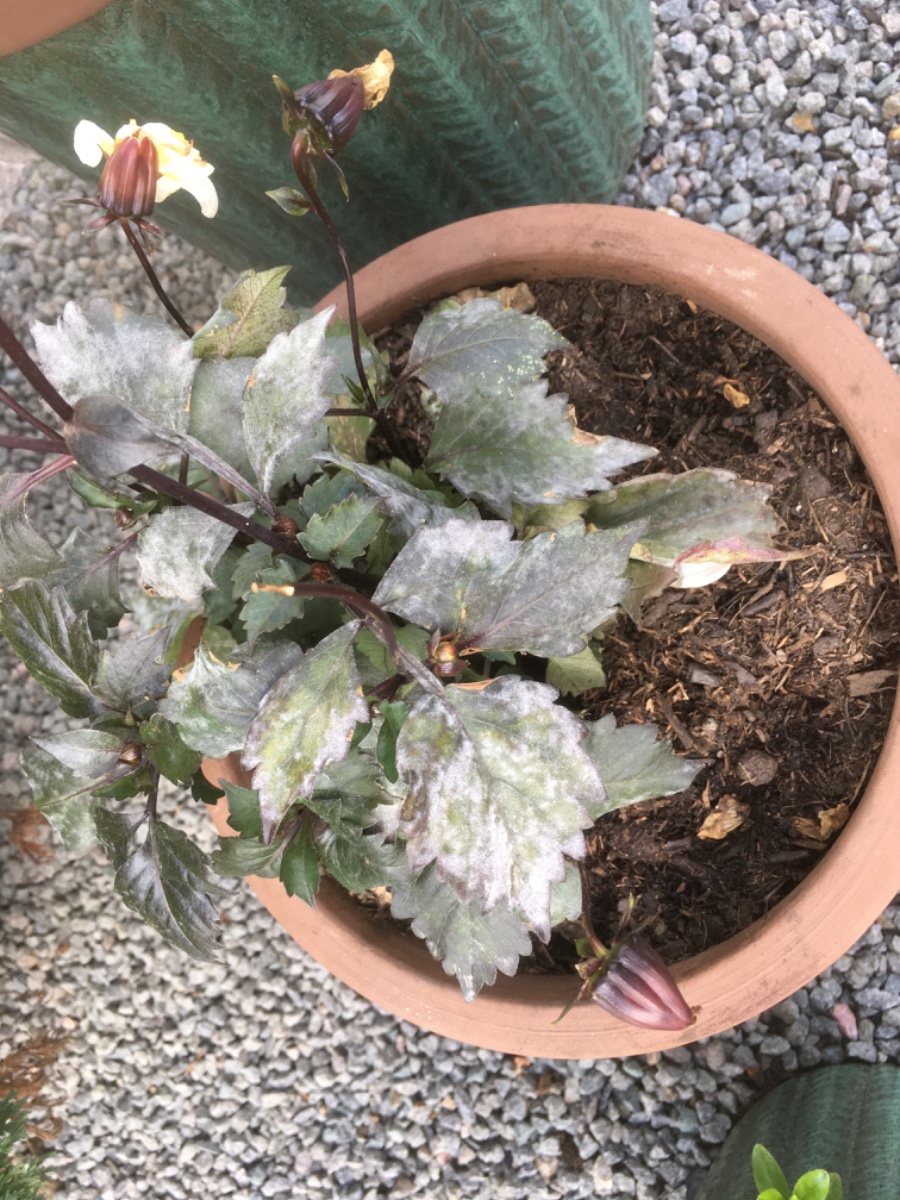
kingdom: Fungi
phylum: Ascomycota
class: Leotiomycetes
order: Helotiales
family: Erysiphaceae
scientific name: Erysiphaceae
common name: meldugfamilien
